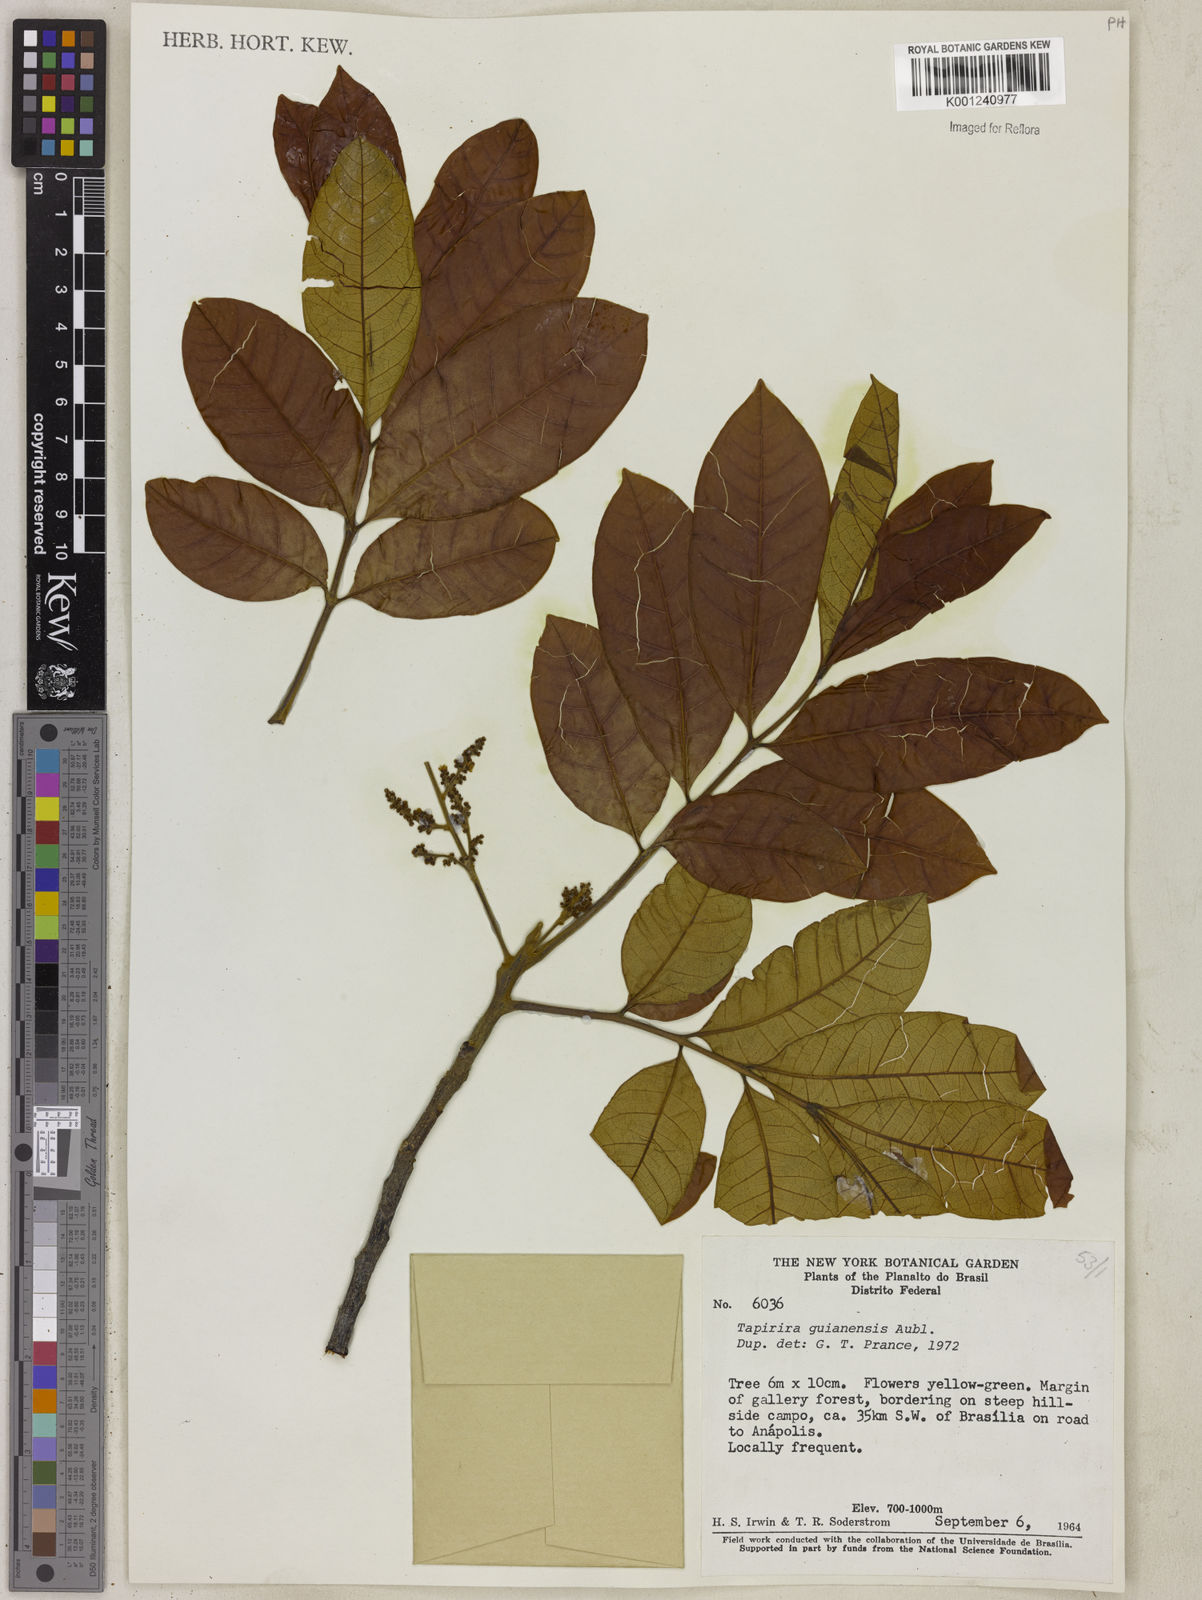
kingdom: Plantae
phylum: Tracheophyta
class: Magnoliopsida
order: Sapindales
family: Anacardiaceae
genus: Tapirira
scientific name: Tapirira guianensis
